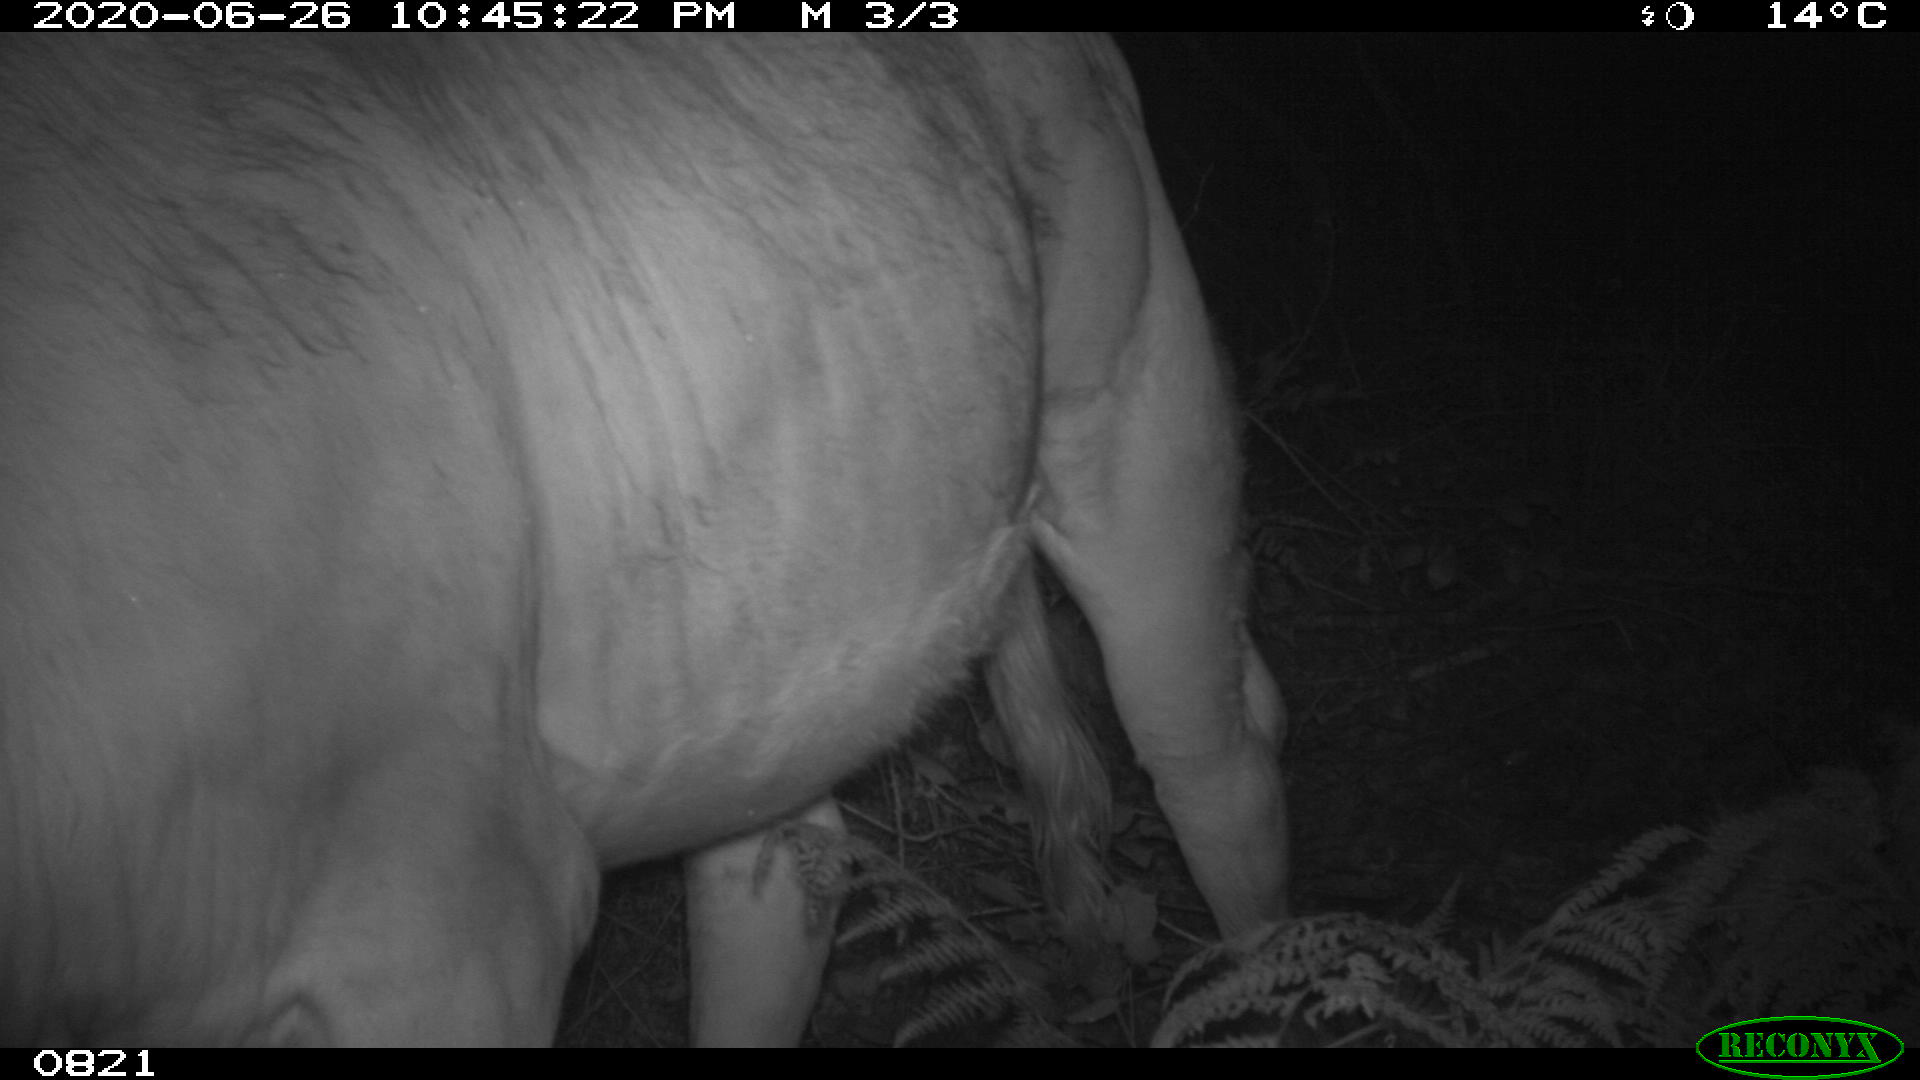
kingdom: Animalia
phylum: Chordata
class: Mammalia
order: Artiodactyla
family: Bovidae
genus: Bos
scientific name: Bos taurus
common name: Domesticated cattle
